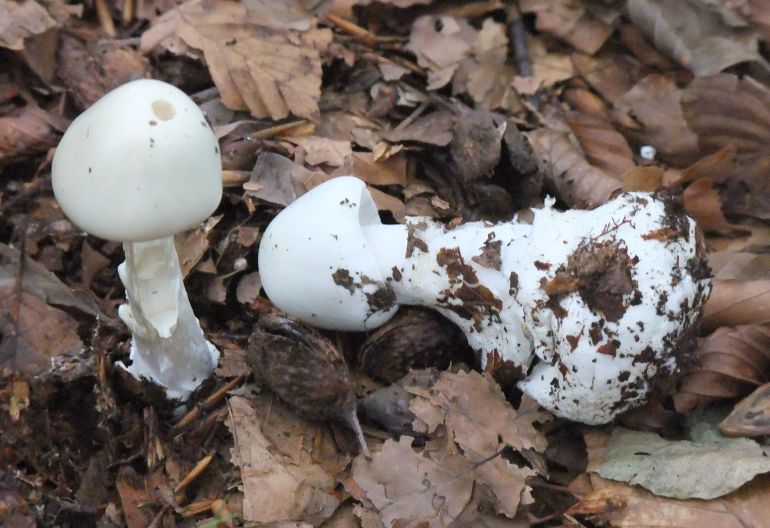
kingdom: Fungi
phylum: Basidiomycota
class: Agaricomycetes
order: Agaricales
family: Amanitaceae
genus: Amanita
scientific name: Amanita virosa
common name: snehvid fluesvamp
